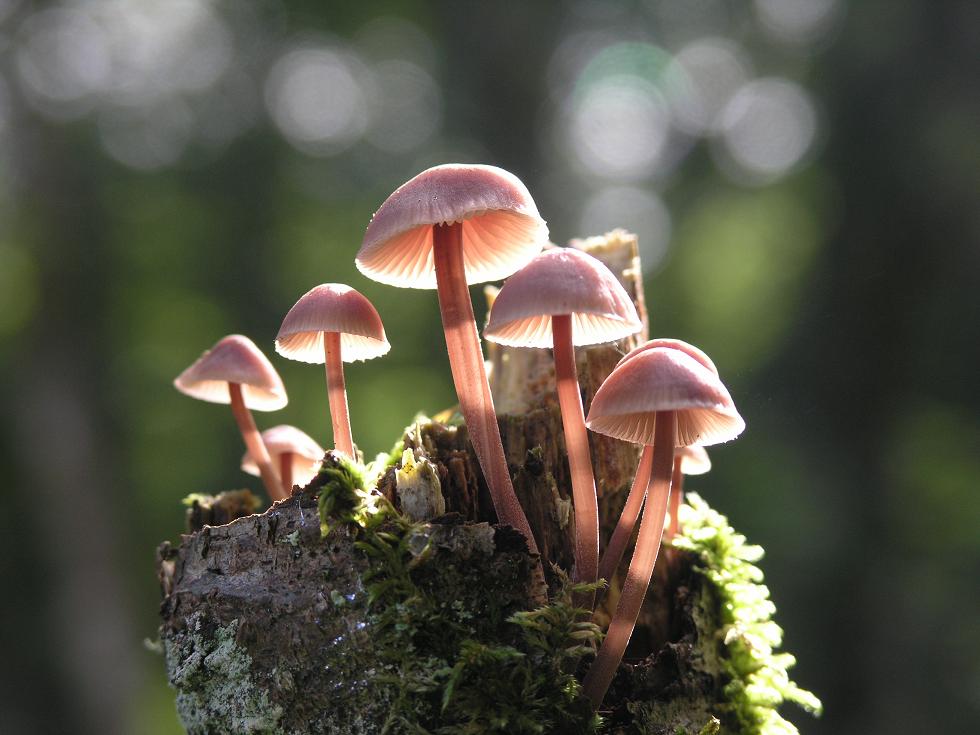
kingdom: Fungi
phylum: Basidiomycota
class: Agaricomycetes
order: Agaricales
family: Mycenaceae
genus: Mycena
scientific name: Mycena haematopus
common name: blødende huesvamp
